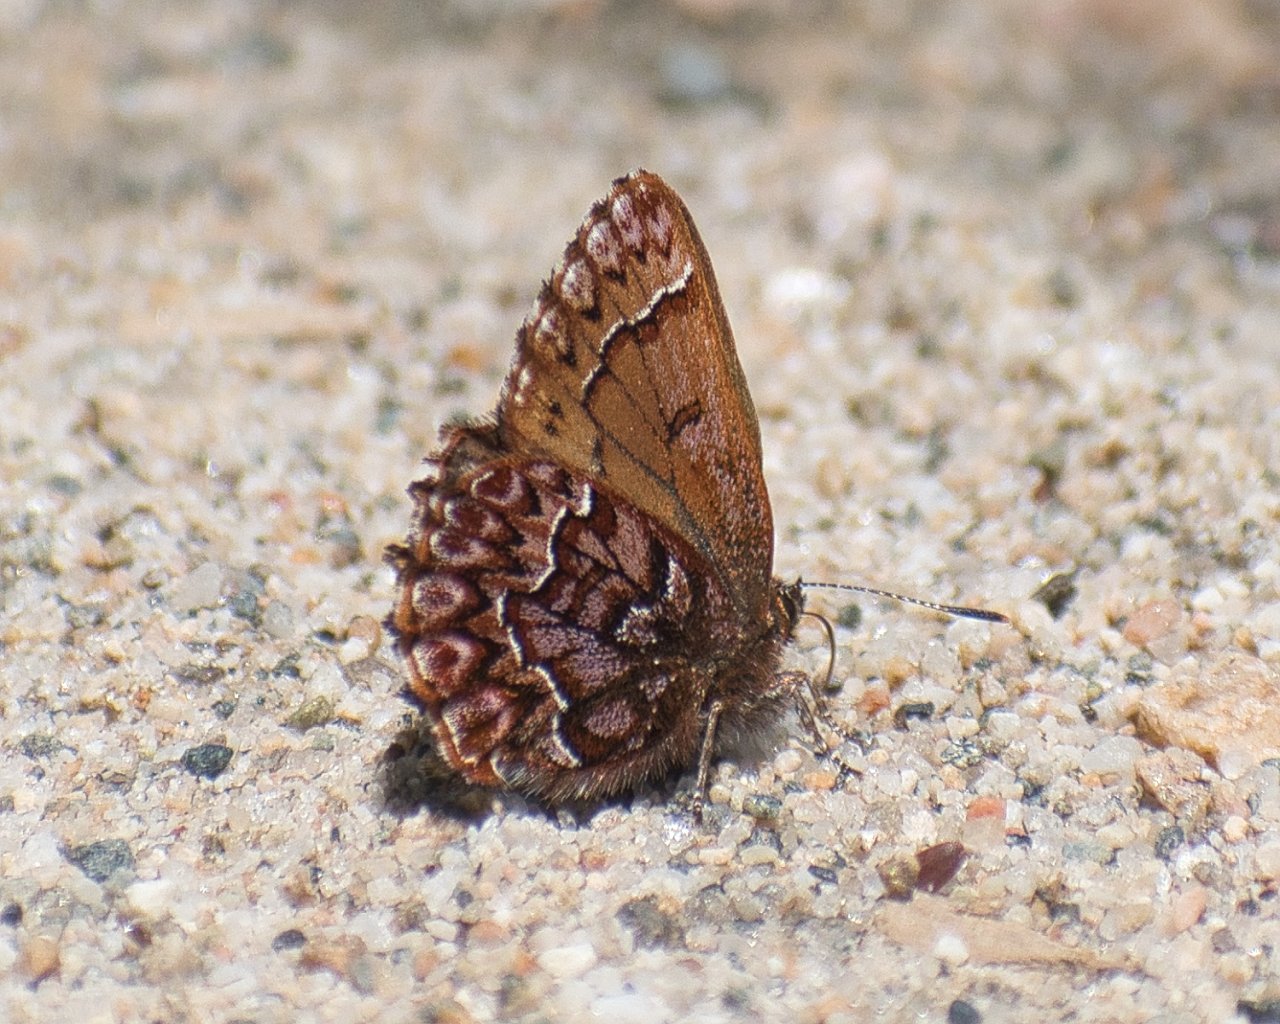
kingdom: Animalia
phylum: Arthropoda
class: Insecta
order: Lepidoptera
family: Lycaenidae
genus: Incisalia
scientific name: Incisalia eryphon
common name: Western Pine Elfin
